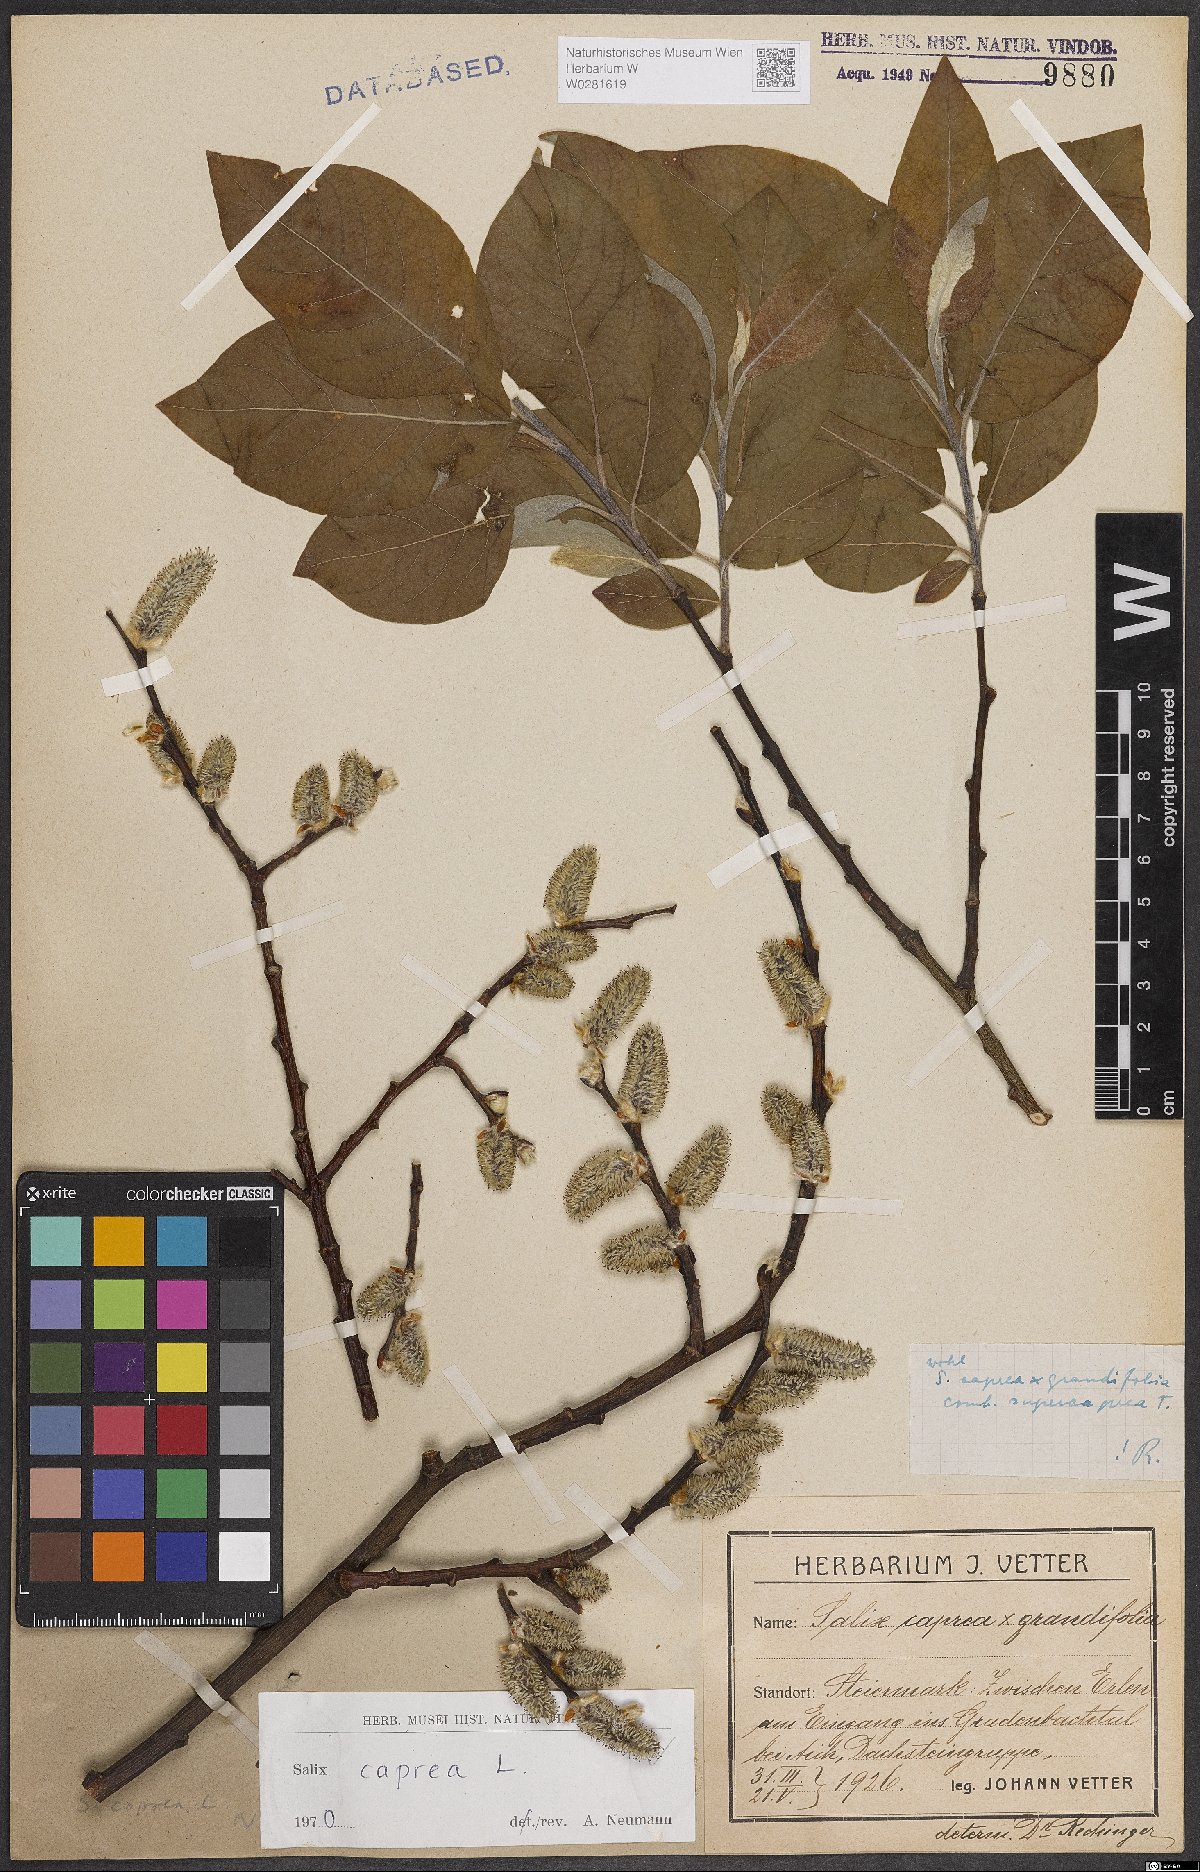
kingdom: Plantae
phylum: Tracheophyta
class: Magnoliopsida
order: Malpighiales
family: Salicaceae
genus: Salix
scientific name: Salix caprea
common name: Goat willow
